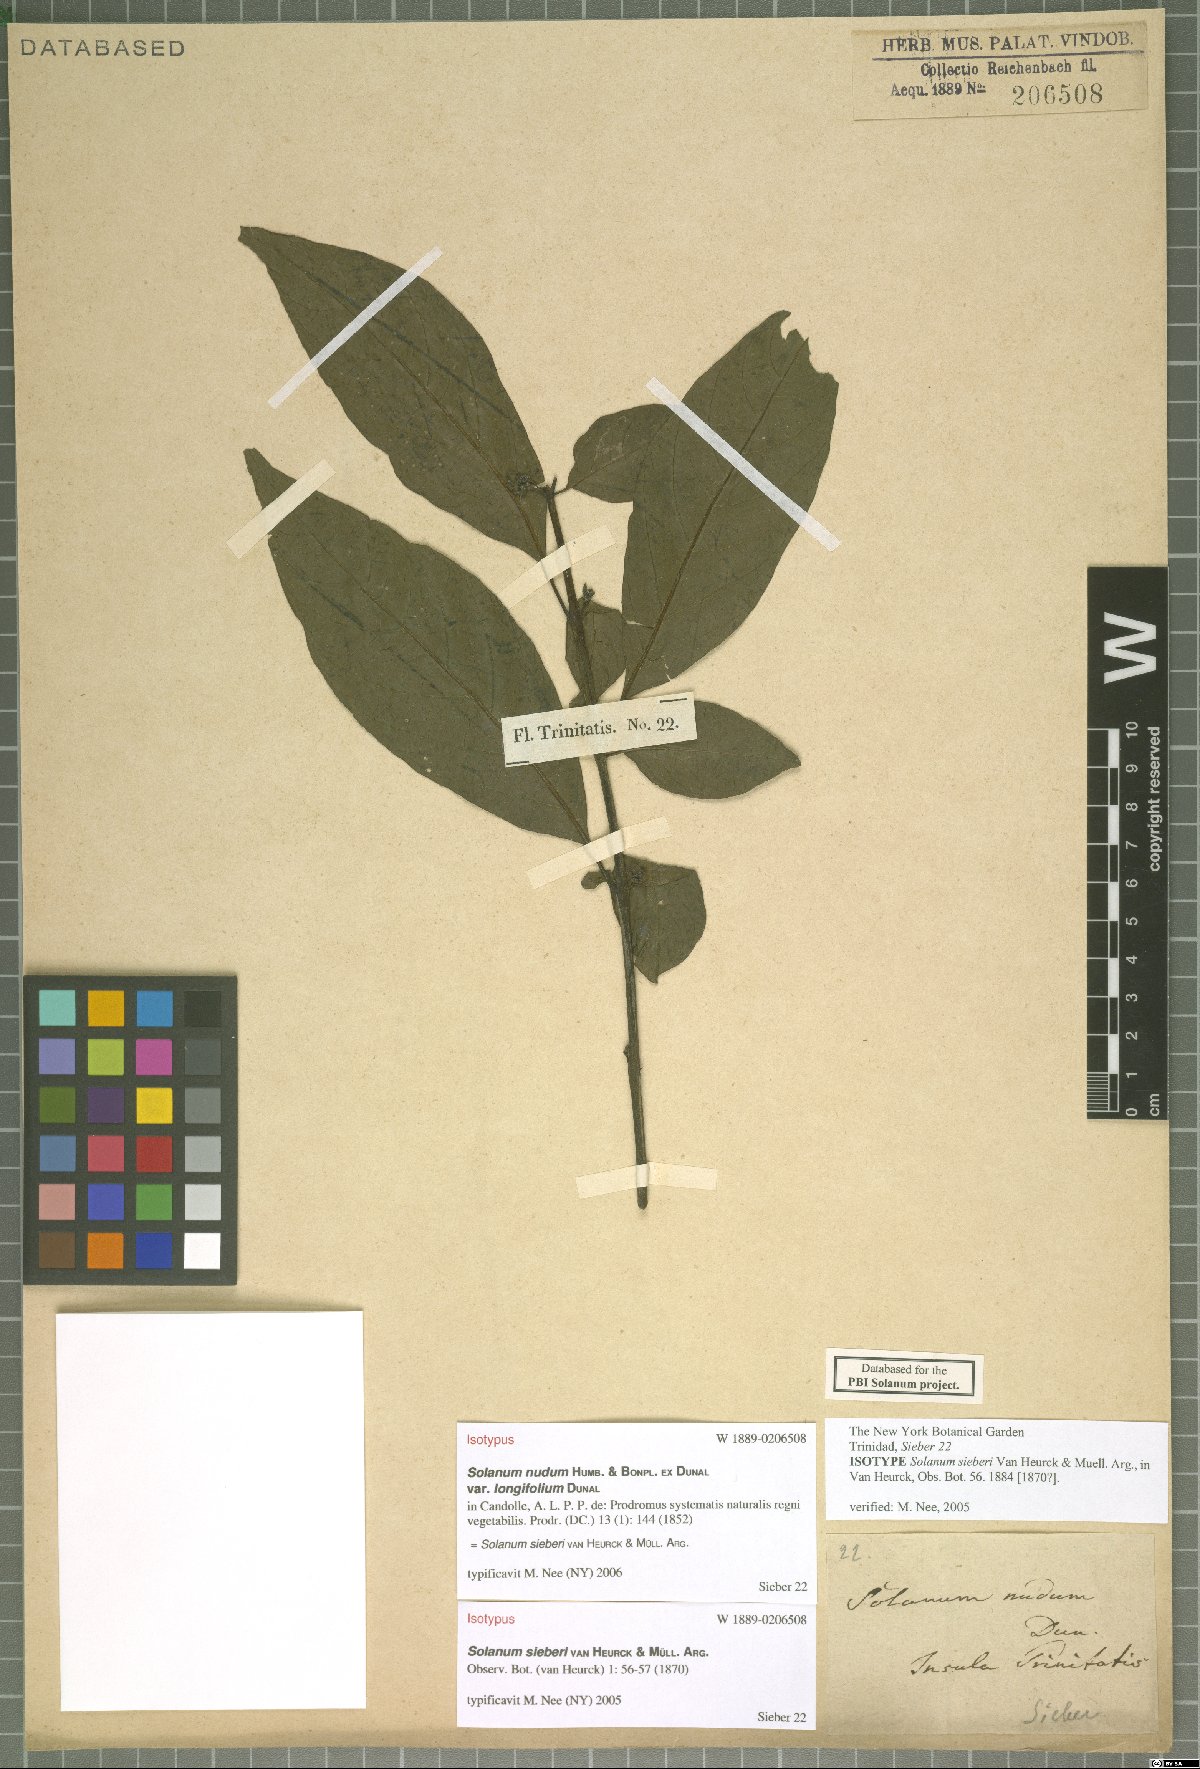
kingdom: Plantae
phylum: Tracheophyta
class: Magnoliopsida
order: Solanales
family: Solanaceae
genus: Solanum
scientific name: Solanum sieberi
